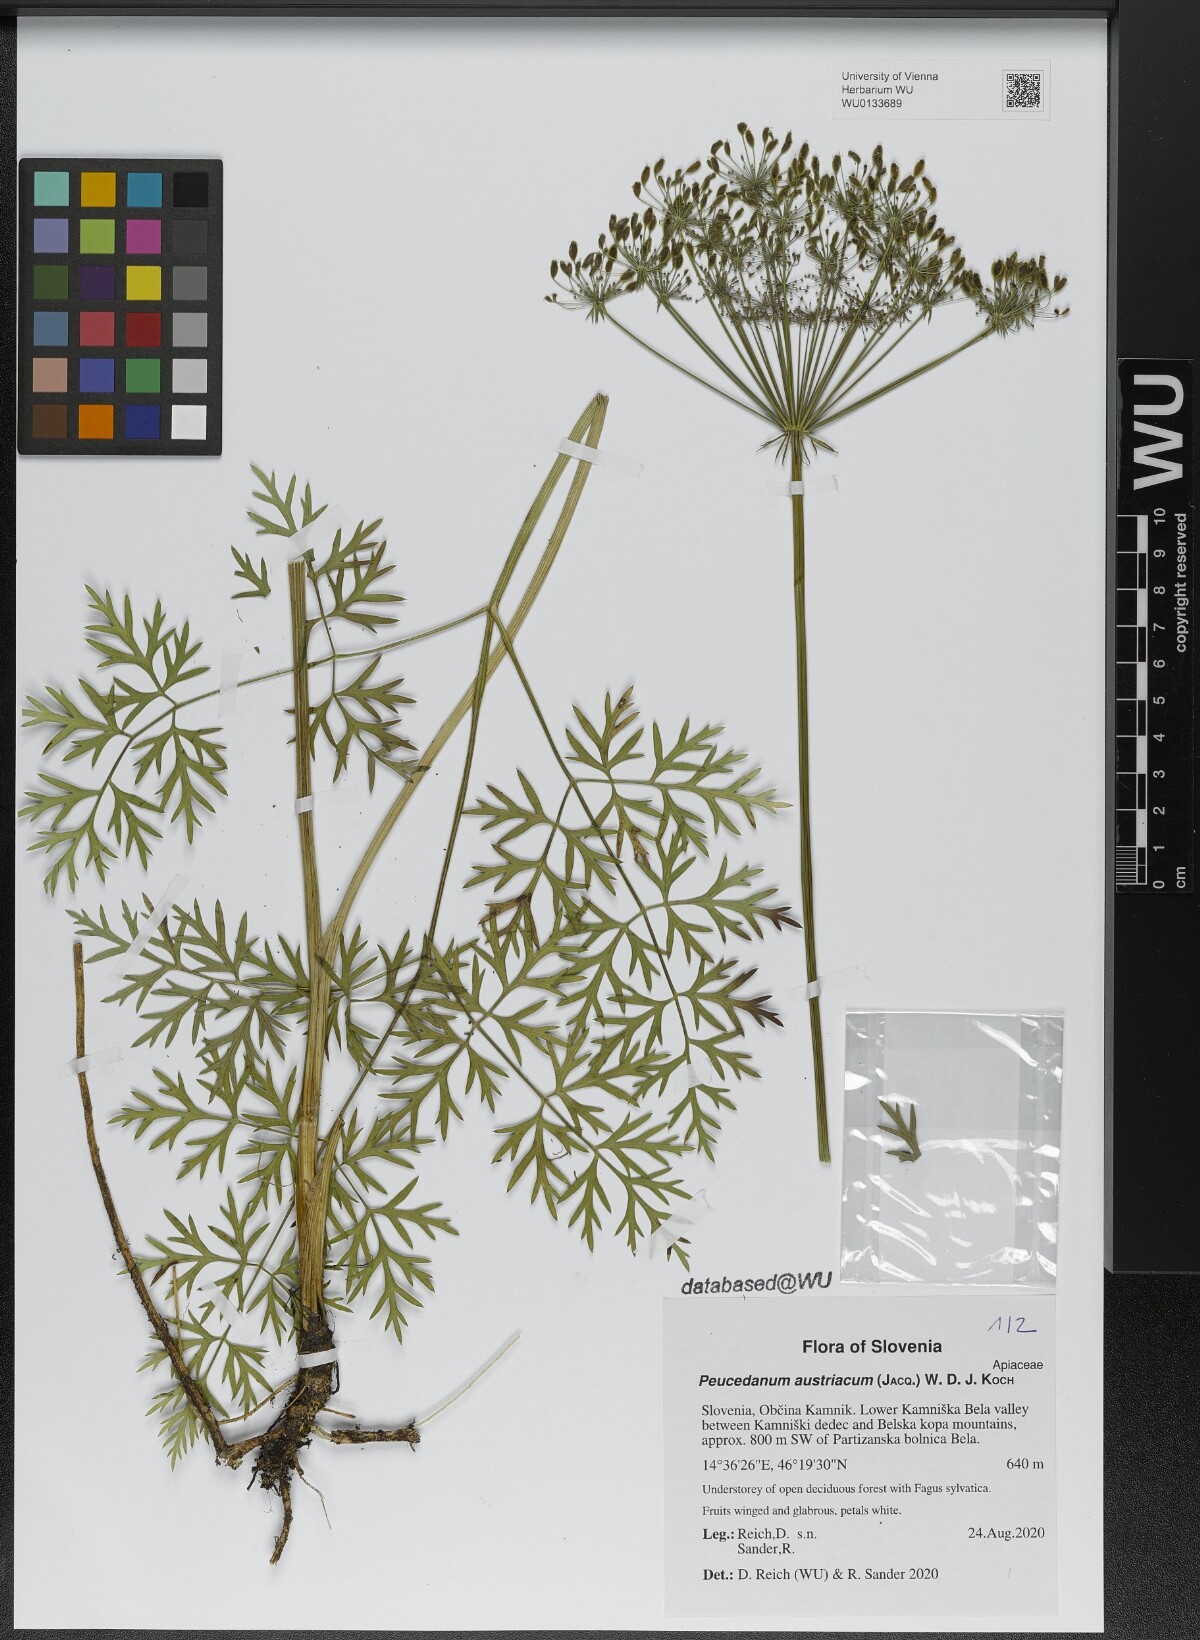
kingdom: Plantae
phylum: Tracheophyta
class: Magnoliopsida
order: Apiales
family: Apiaceae
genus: Peucedanum
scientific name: Peucedanum austriacum
